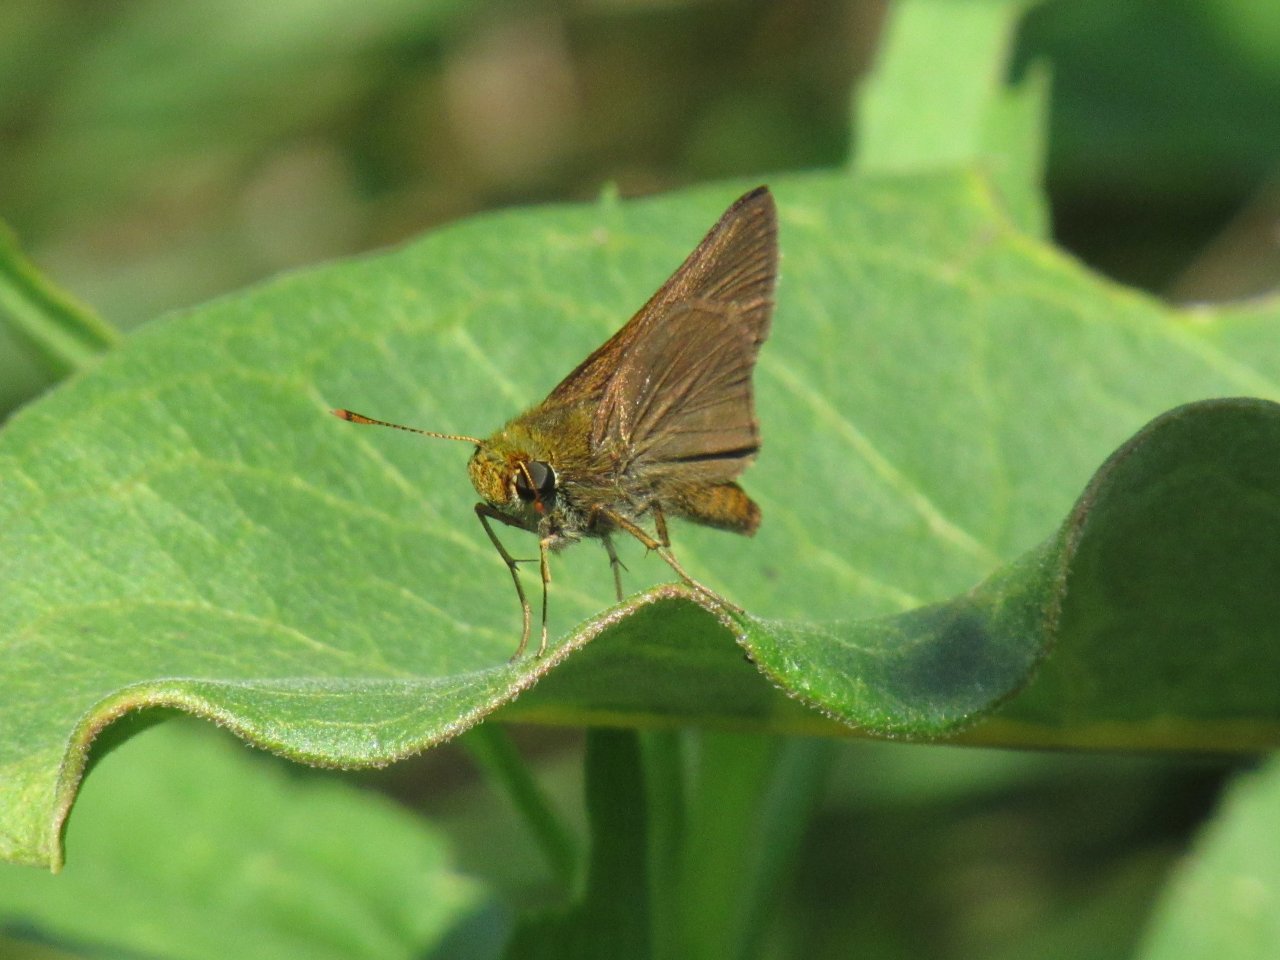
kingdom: Animalia
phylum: Arthropoda
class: Insecta
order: Lepidoptera
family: Hesperiidae
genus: Euphyes
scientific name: Euphyes vestris
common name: Dun Skipper
